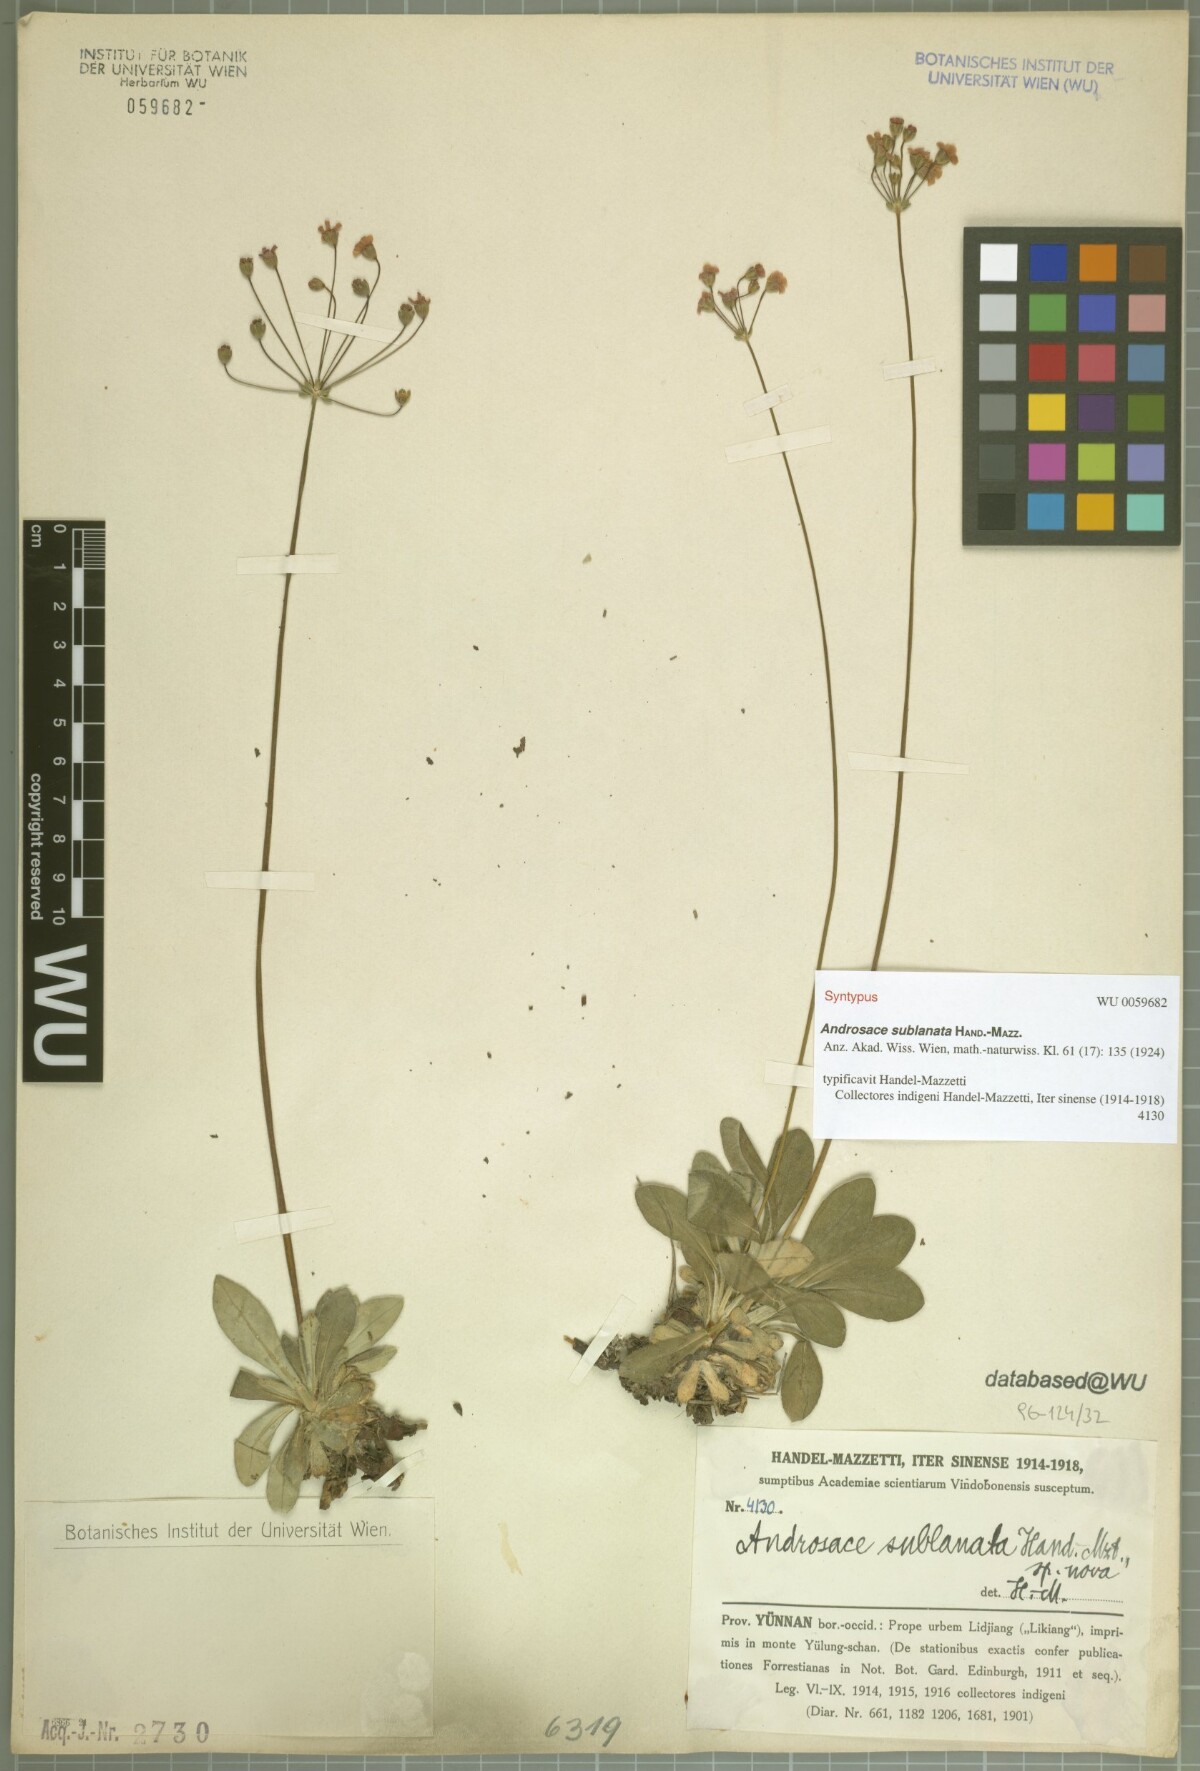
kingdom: Plantae
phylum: Tracheophyta
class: Magnoliopsida
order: Ericales
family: Primulaceae
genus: Androsace
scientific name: Androsace sublanata
